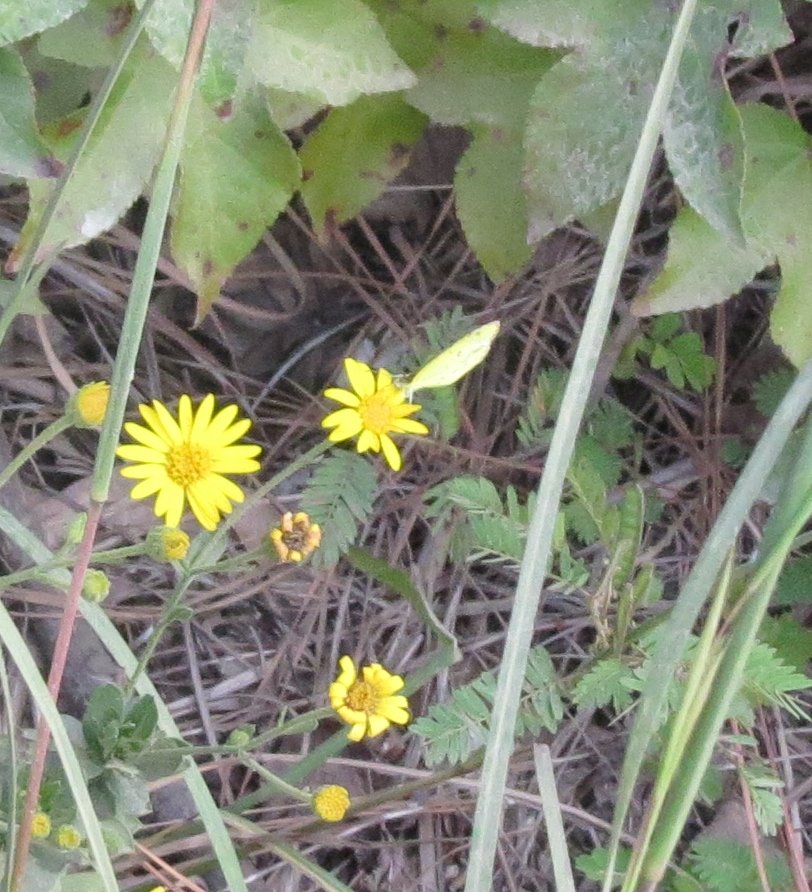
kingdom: Animalia
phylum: Arthropoda
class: Insecta
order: Lepidoptera
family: Pieridae
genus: Pyrisitia
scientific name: Pyrisitia lisa
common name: Little Yellow
